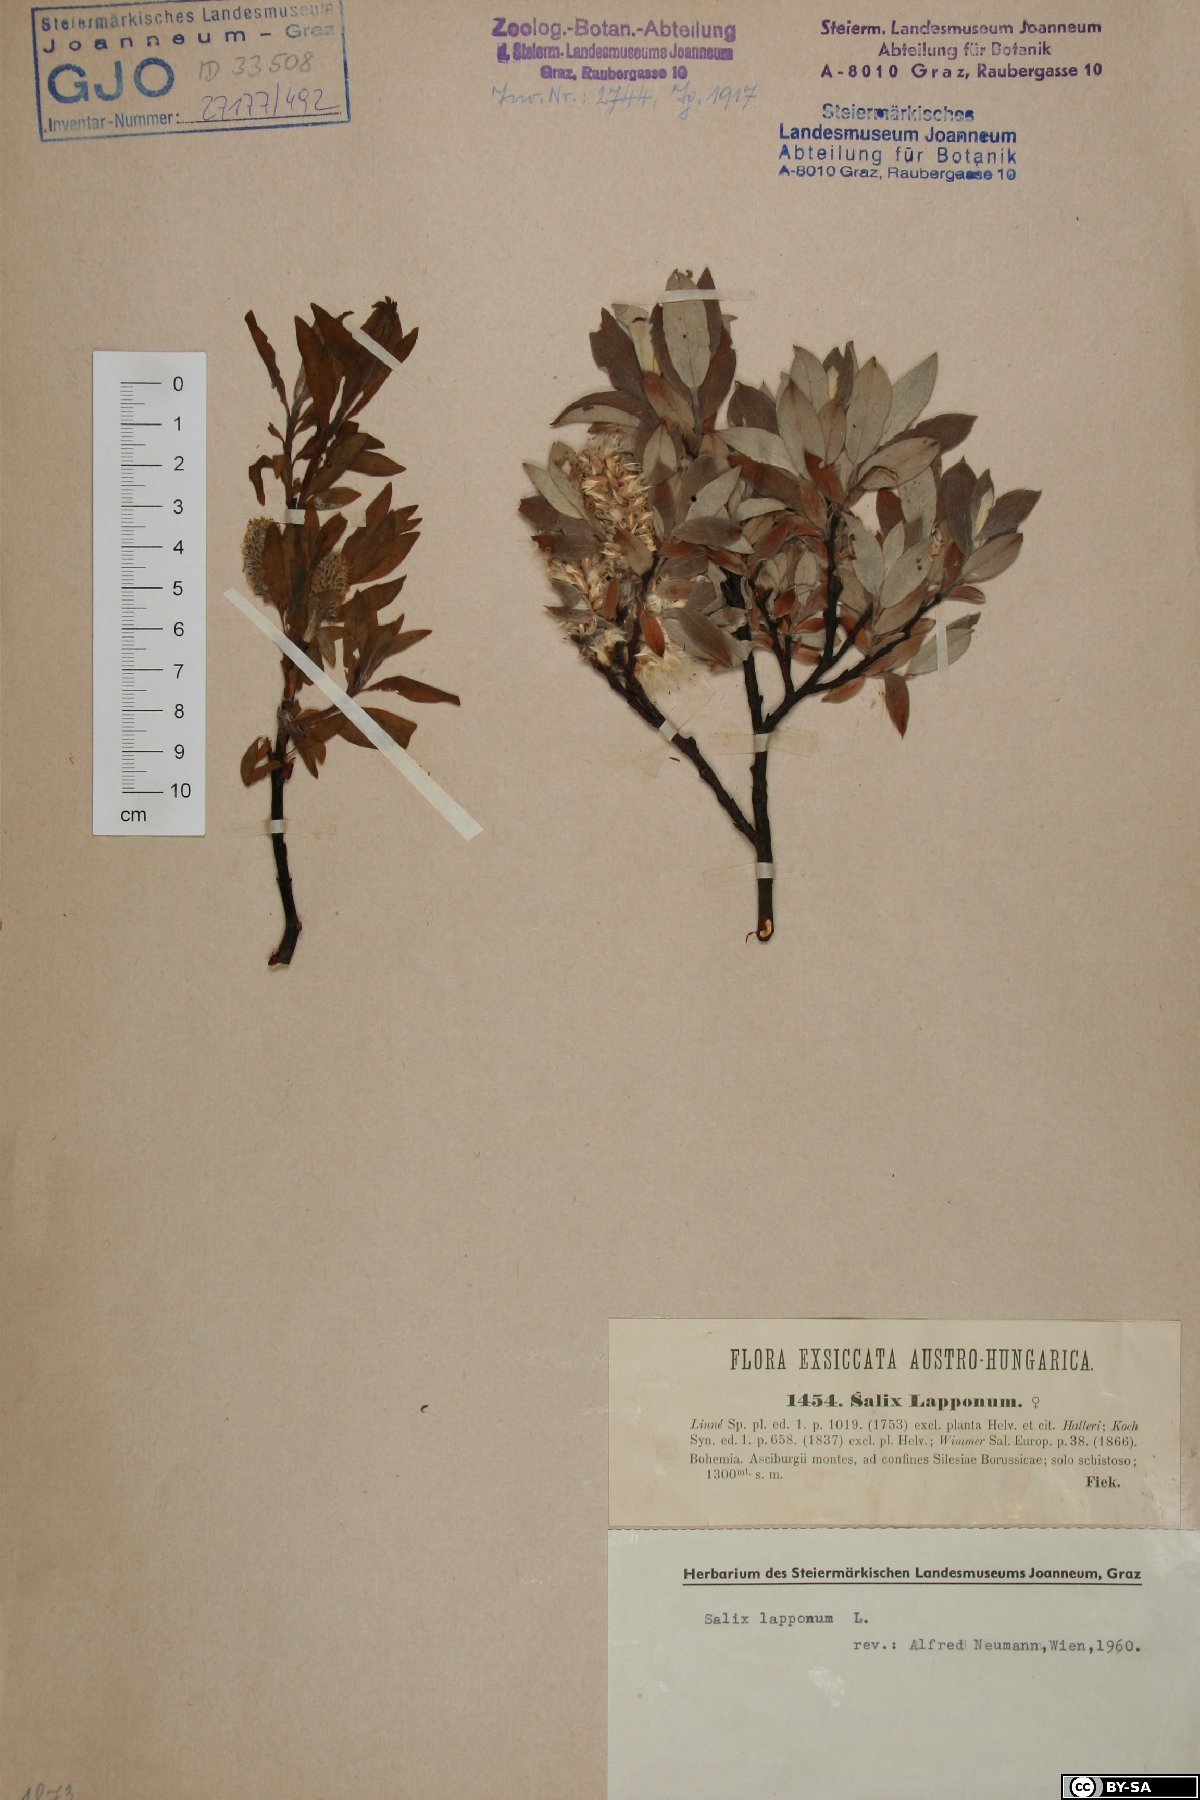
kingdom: Plantae
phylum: Tracheophyta
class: Magnoliopsida
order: Malpighiales
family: Salicaceae
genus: Salix
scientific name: Salix lapponum
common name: Downy willow
